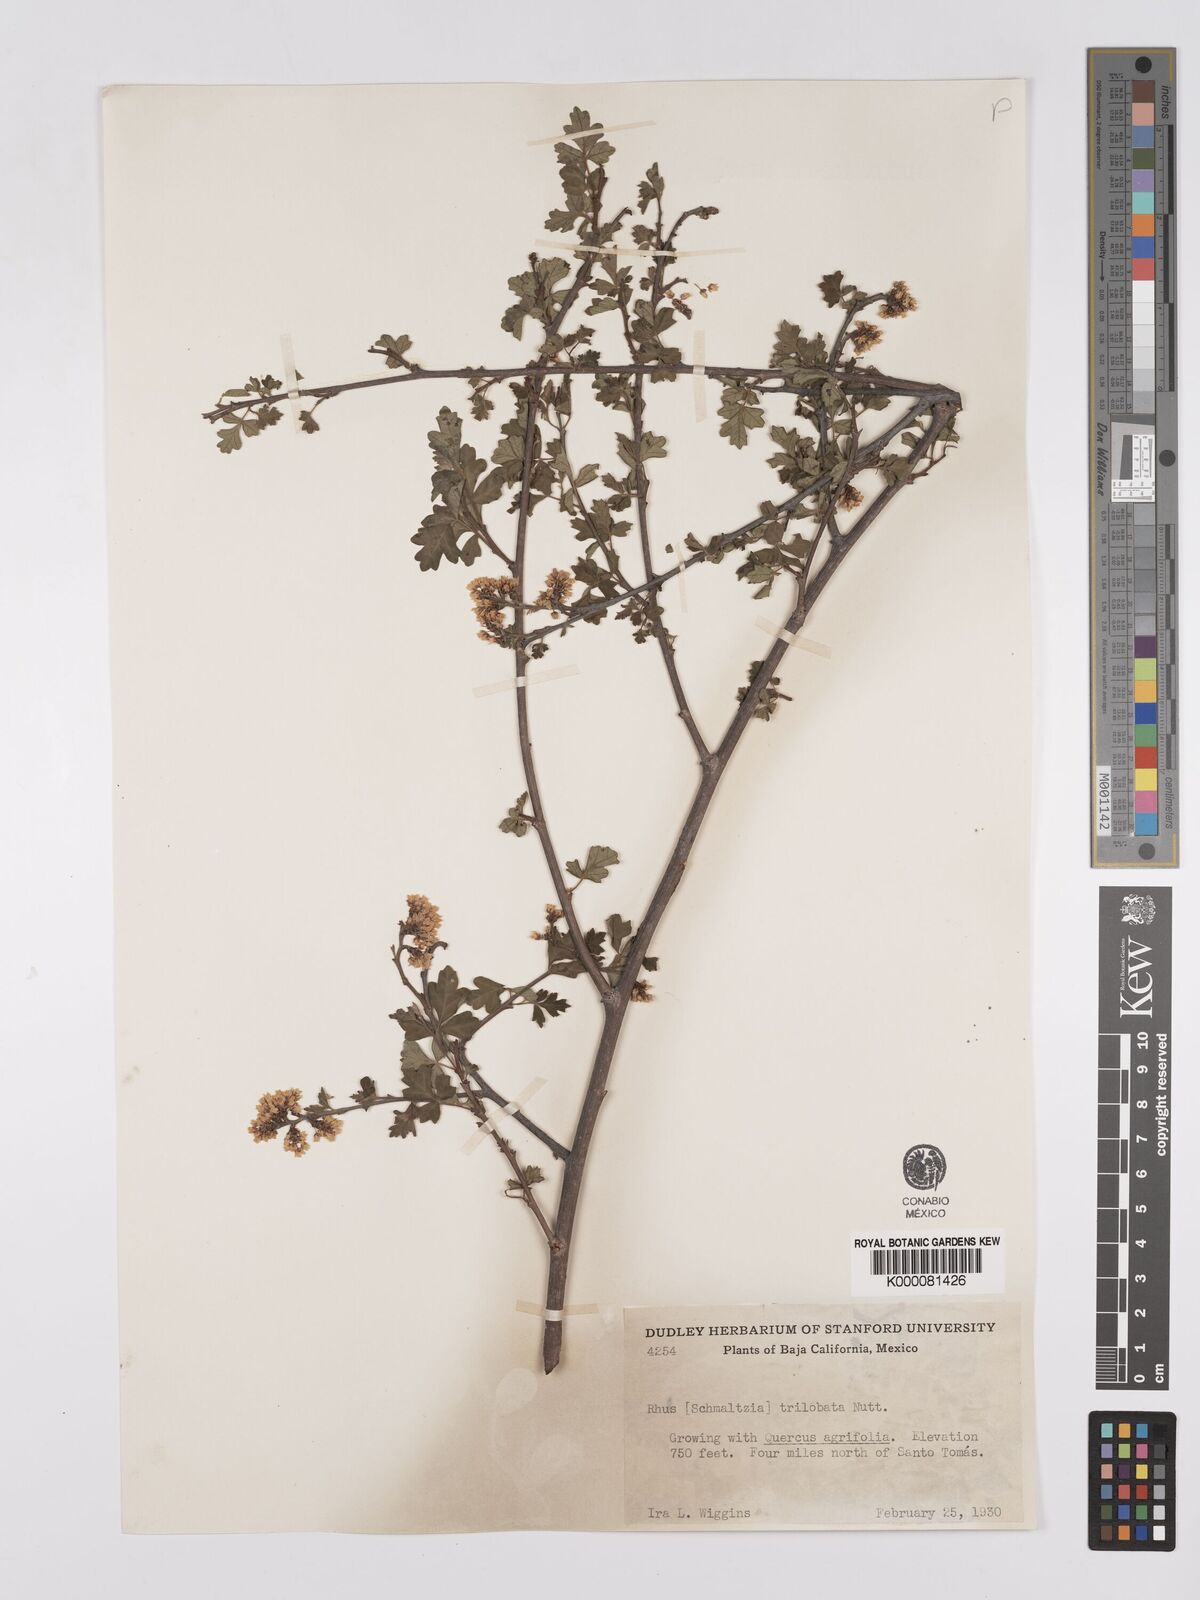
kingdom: Plantae
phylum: Tracheophyta
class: Magnoliopsida
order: Sapindales
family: Anacardiaceae
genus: Rhus
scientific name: Rhus
